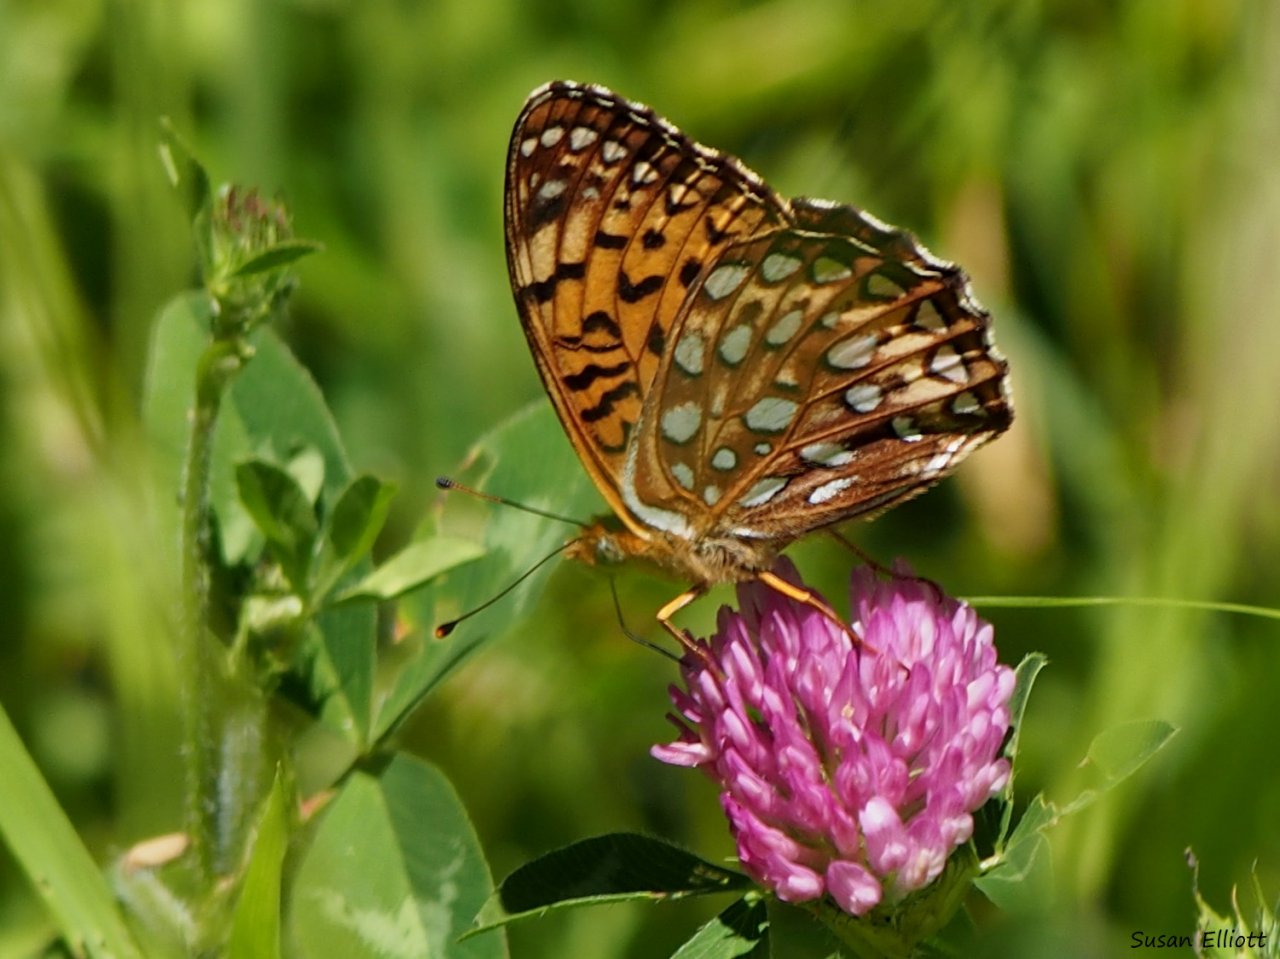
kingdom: Animalia
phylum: Arthropoda
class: Insecta
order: Lepidoptera
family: Nymphalidae
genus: Speyeria
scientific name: Speyeria atlantis
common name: Atlantis Fritillary
